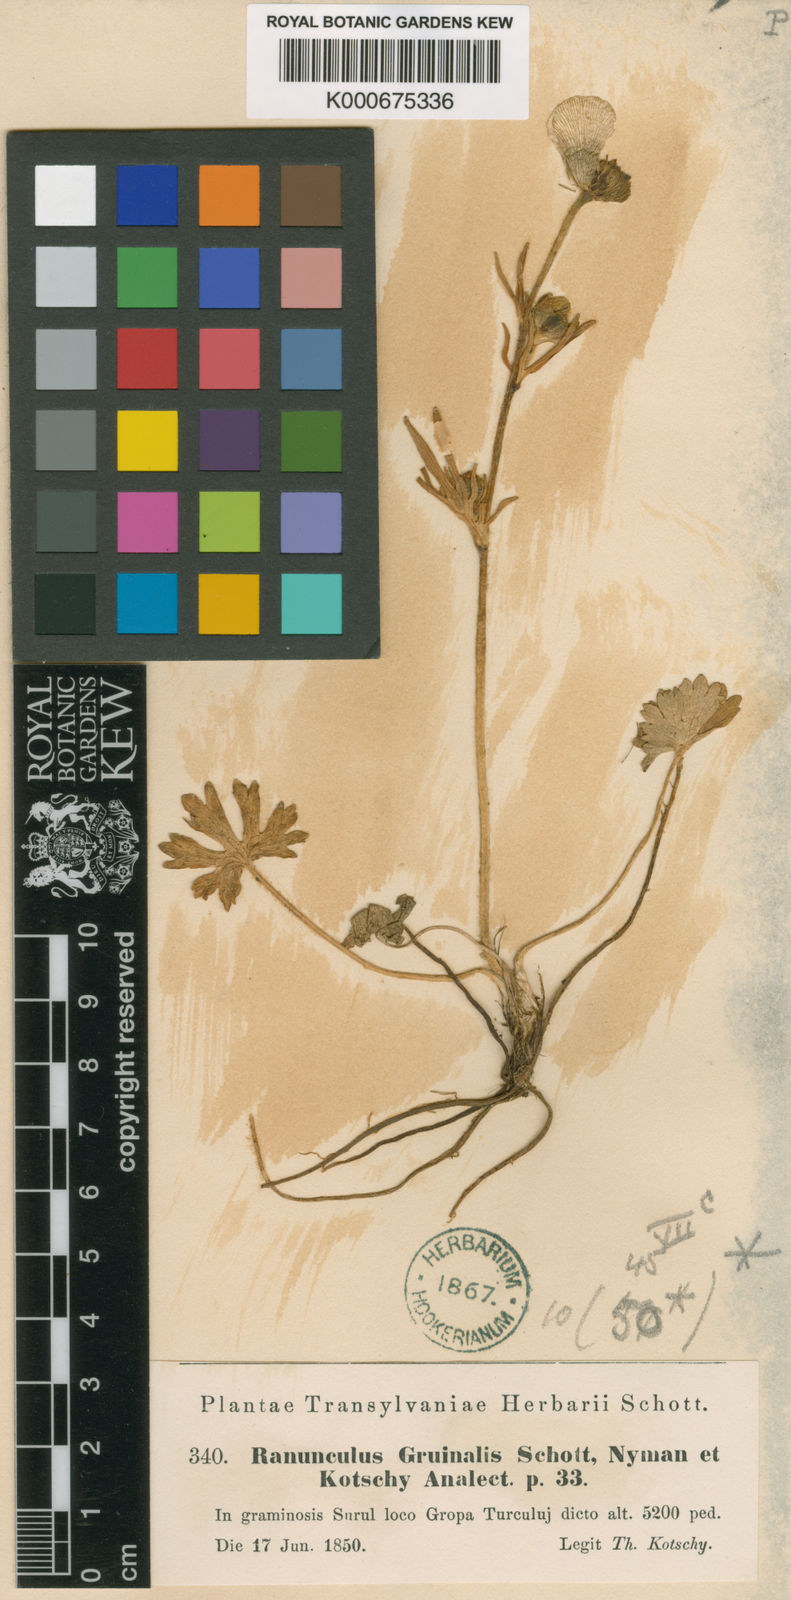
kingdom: Plantae
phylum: Tracheophyta
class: Magnoliopsida
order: Ranunculales
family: Ranunculaceae
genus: Ranunculus
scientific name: Ranunculus pseudomontanus
